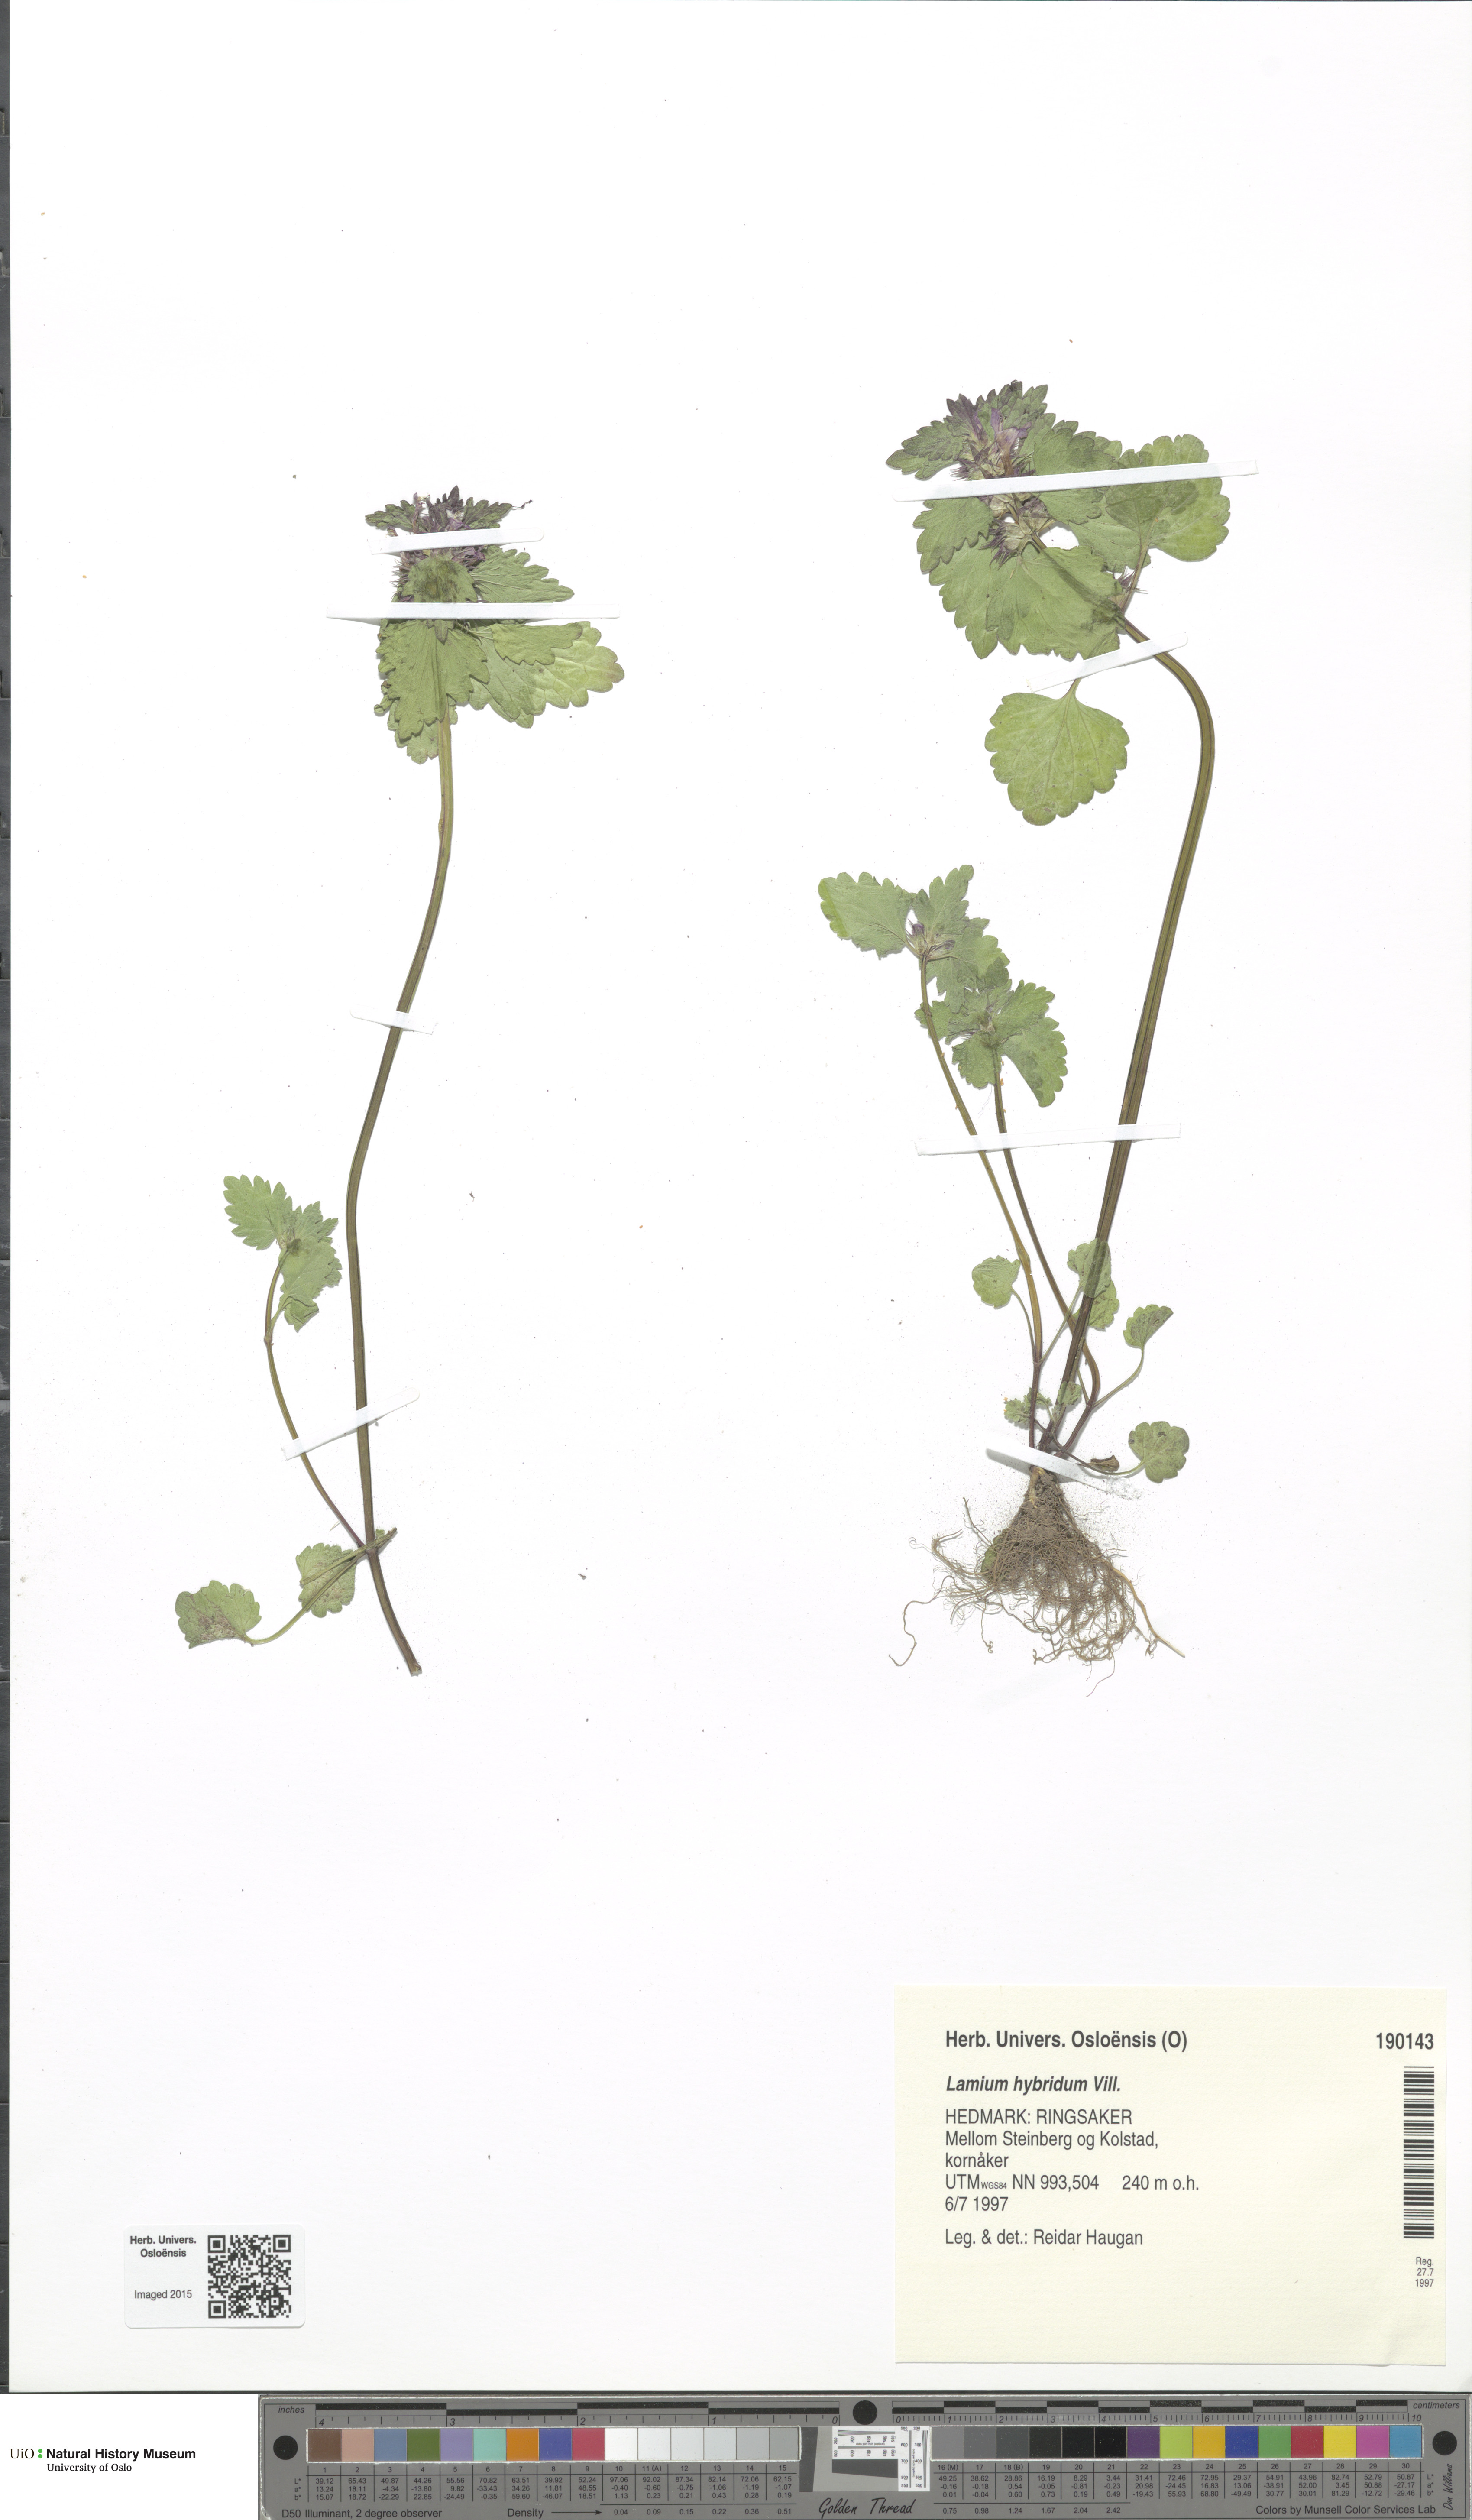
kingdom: Plantae
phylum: Tracheophyta
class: Magnoliopsida
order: Lamiales
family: Lamiaceae
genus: Lamium
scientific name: Lamium hybridum
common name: Cut-leaved dead-nettle
